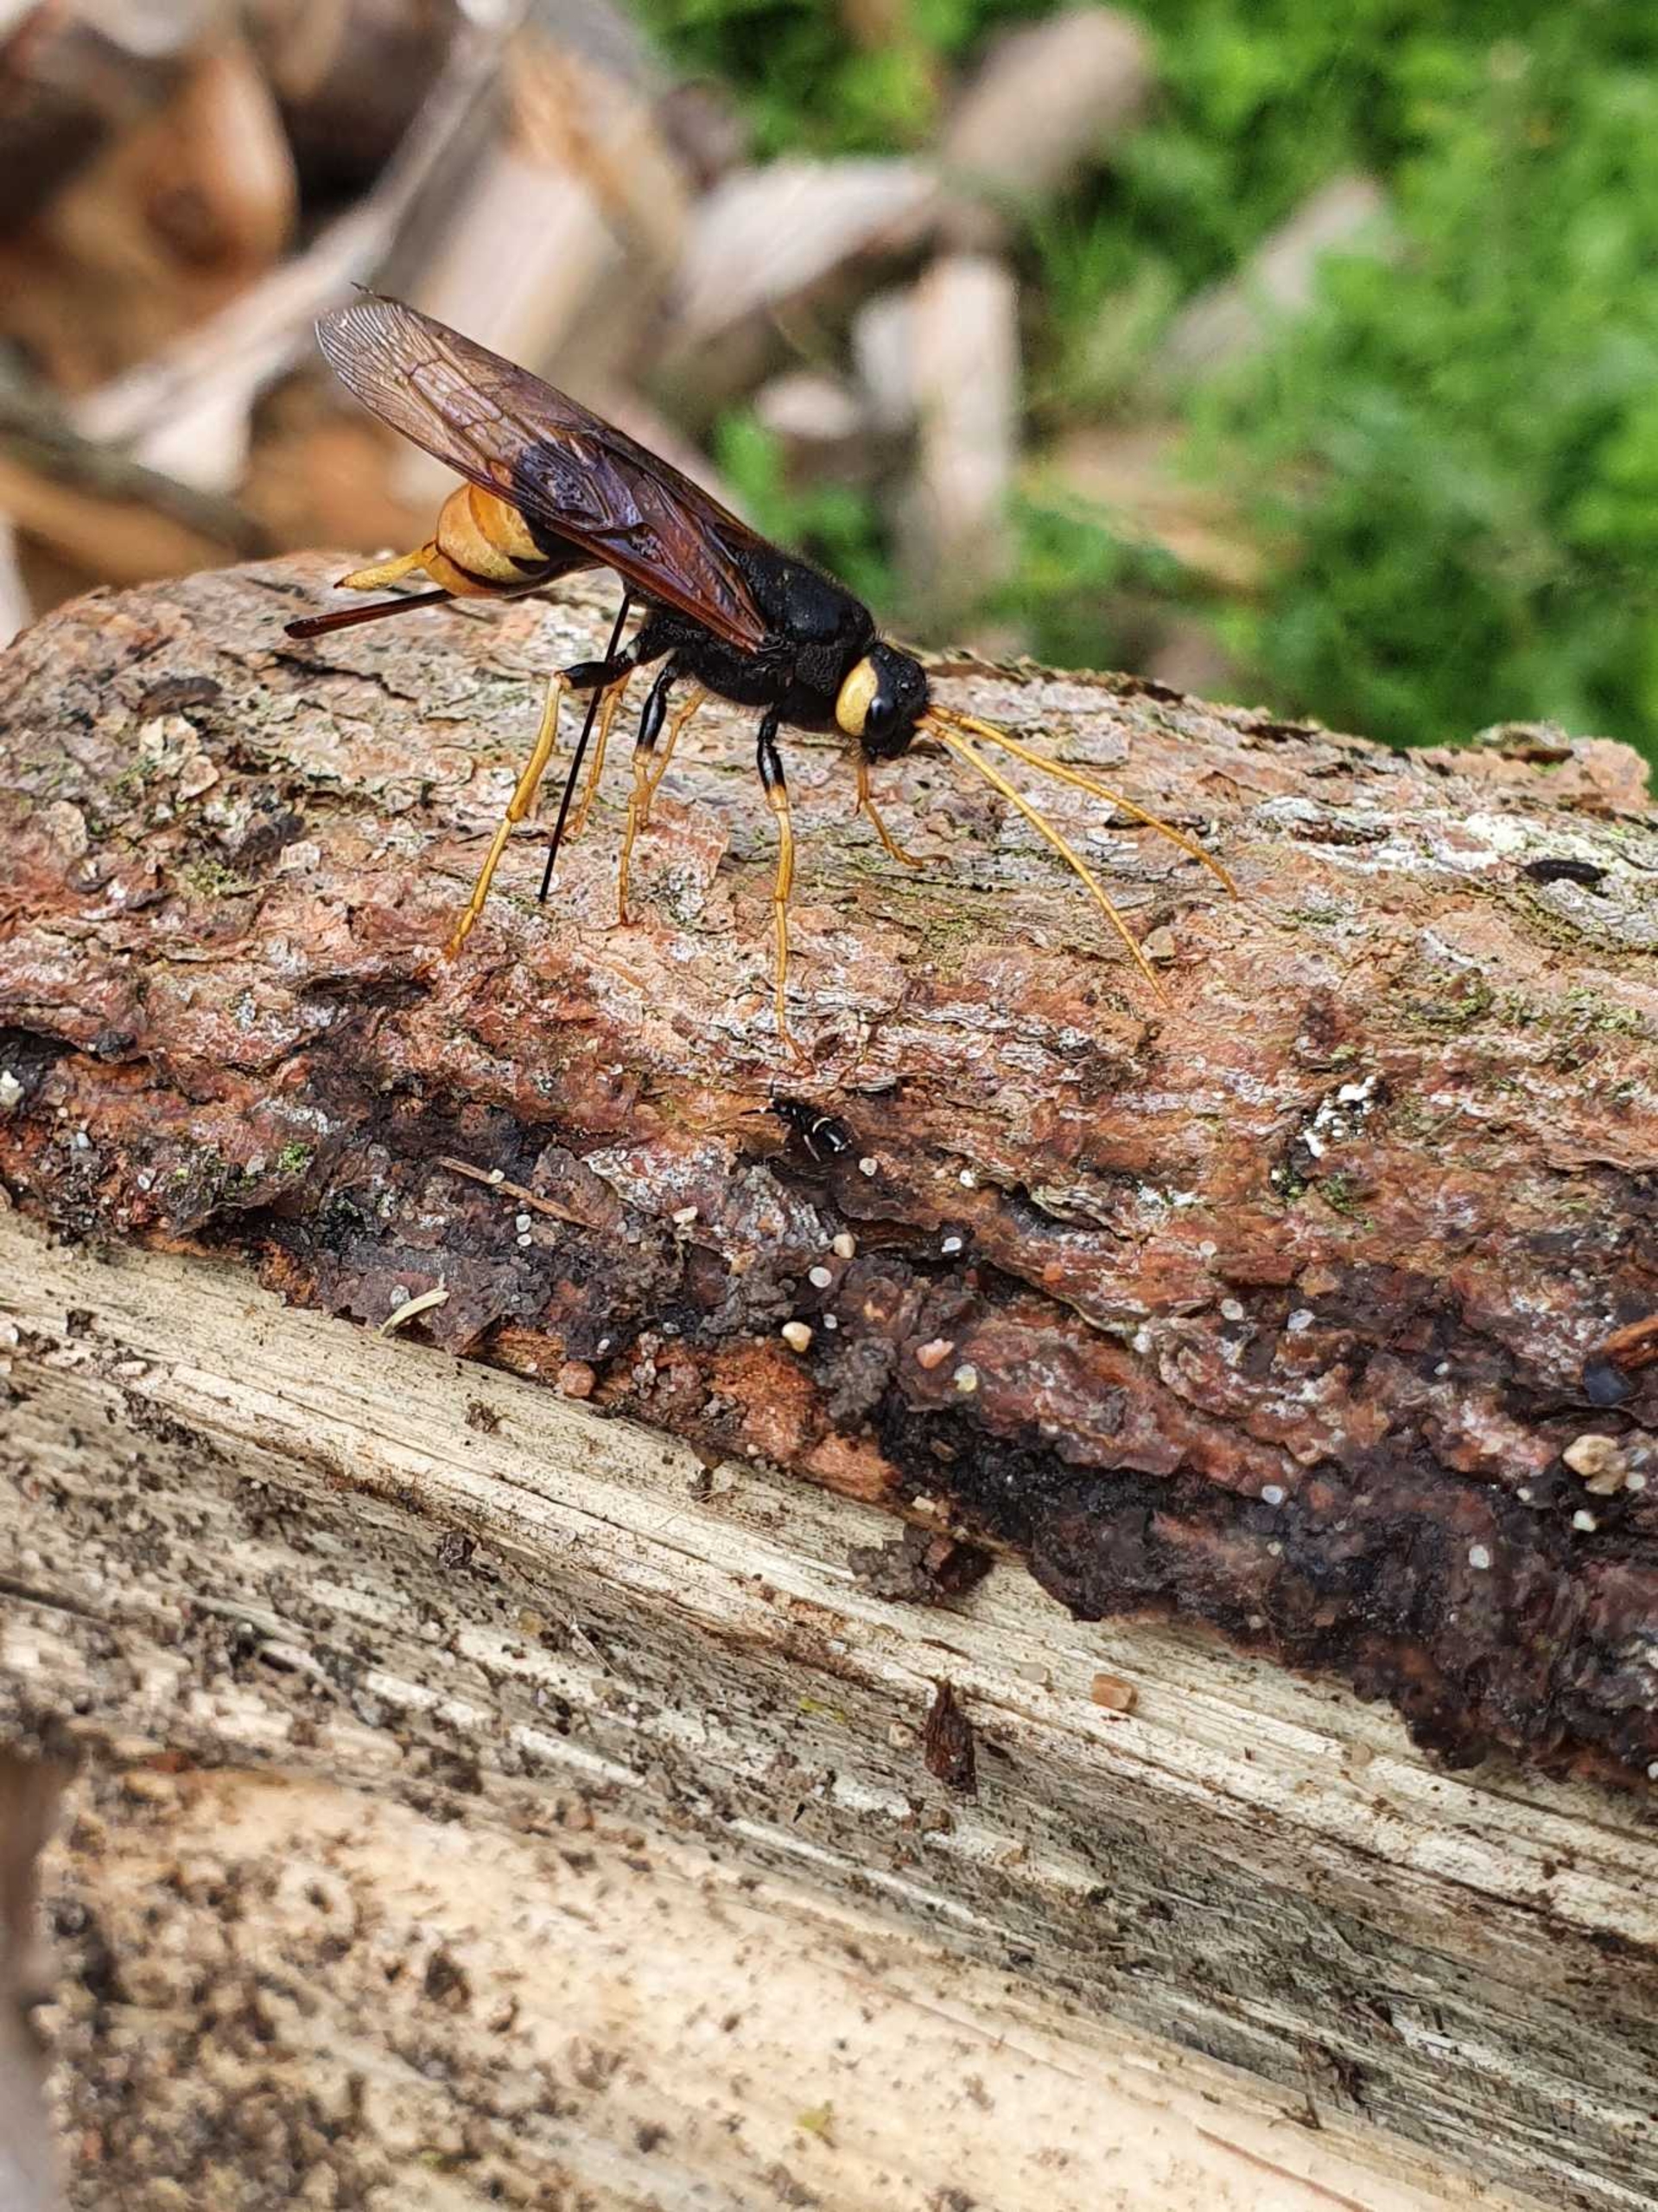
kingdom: Animalia
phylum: Arthropoda
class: Insecta
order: Hymenoptera
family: Siricidae
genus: Urocerus
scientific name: Urocerus gigas
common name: Kæmpetræhveps
